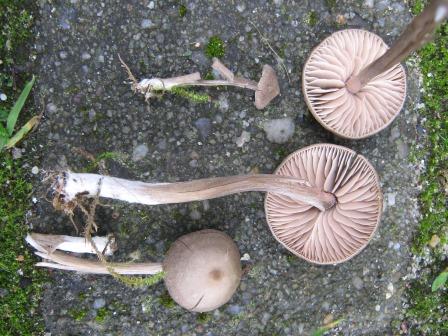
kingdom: Fungi
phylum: Basidiomycota
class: Agaricomycetes
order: Agaricales
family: Entolomataceae
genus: Entoloma
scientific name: Entoloma sericeum
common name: silkeglinsende rødblad
